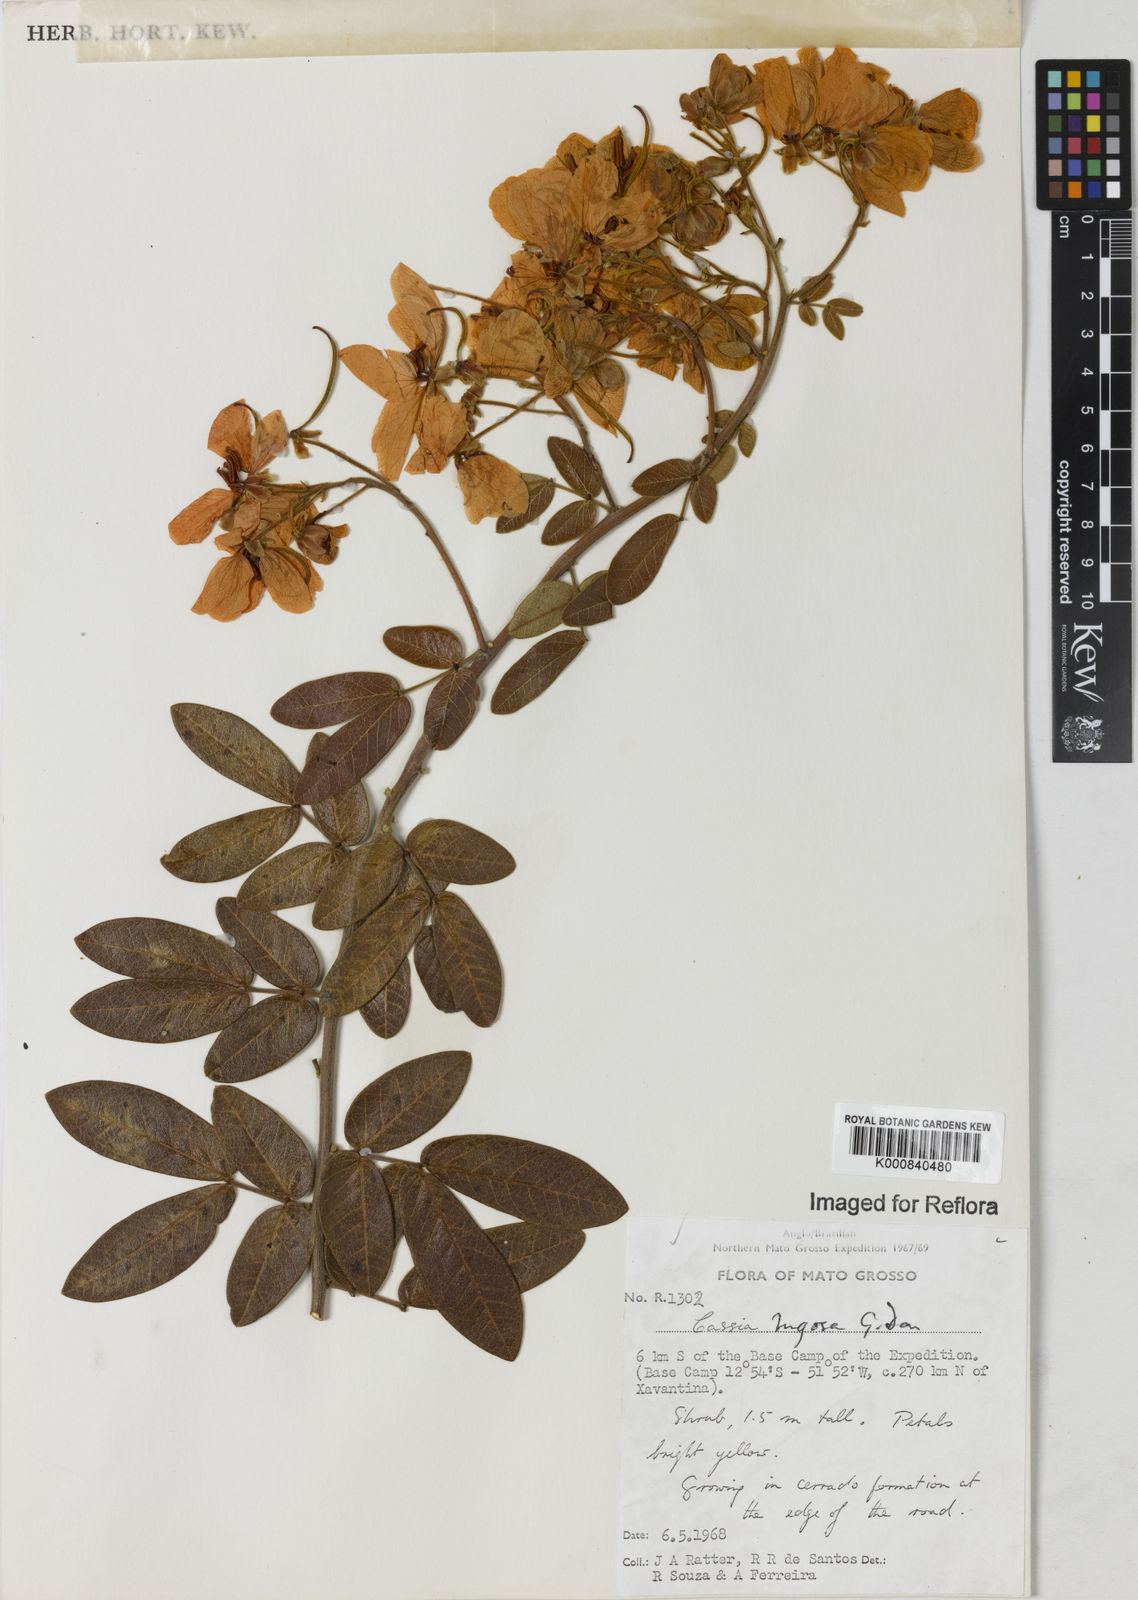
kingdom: Plantae
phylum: Tracheophyta
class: Magnoliopsida
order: Fabales
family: Fabaceae
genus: Senna
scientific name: Senna rugosa
